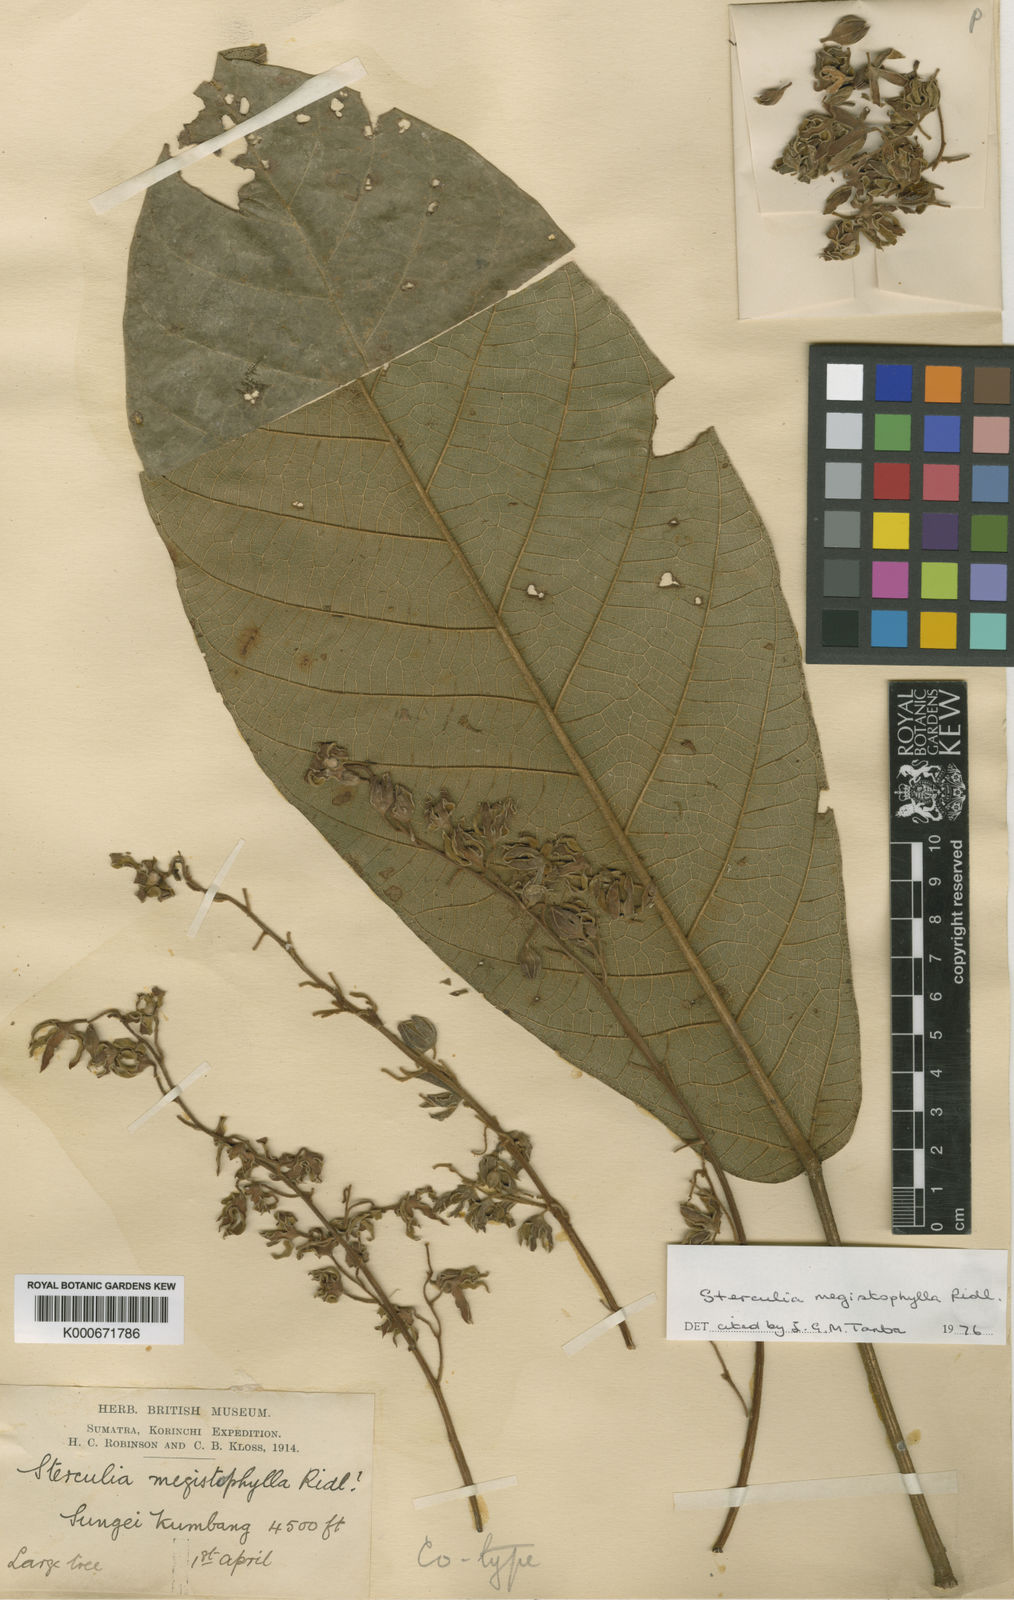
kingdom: Plantae
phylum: Tracheophyta
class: Magnoliopsida
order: Malvales
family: Malvaceae
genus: Sterculia
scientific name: Sterculia megistophylla
